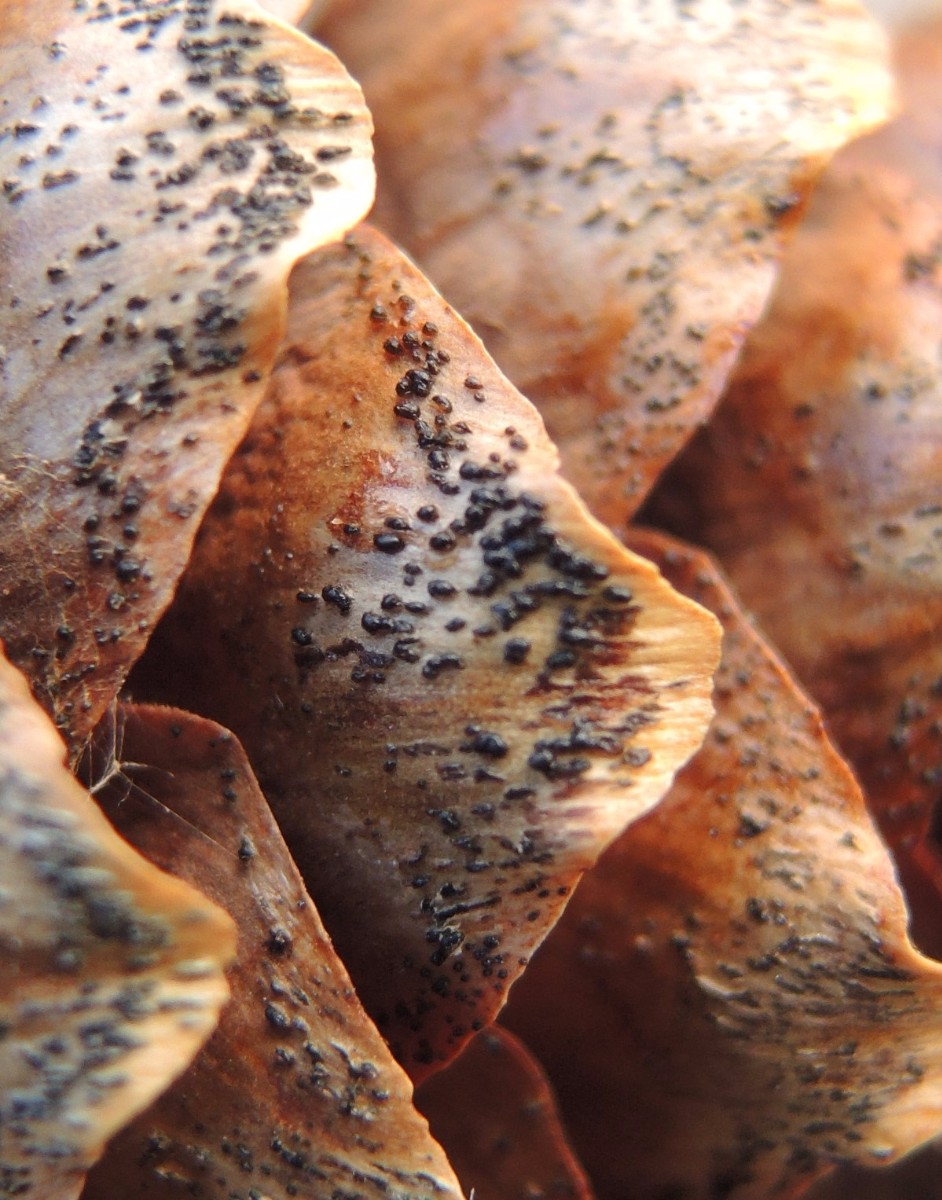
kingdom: Fungi
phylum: Ascomycota
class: Sordariomycetes
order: Diaporthales
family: Gnomoniaceae
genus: Sirococcus
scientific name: Sirococcus conigenus
